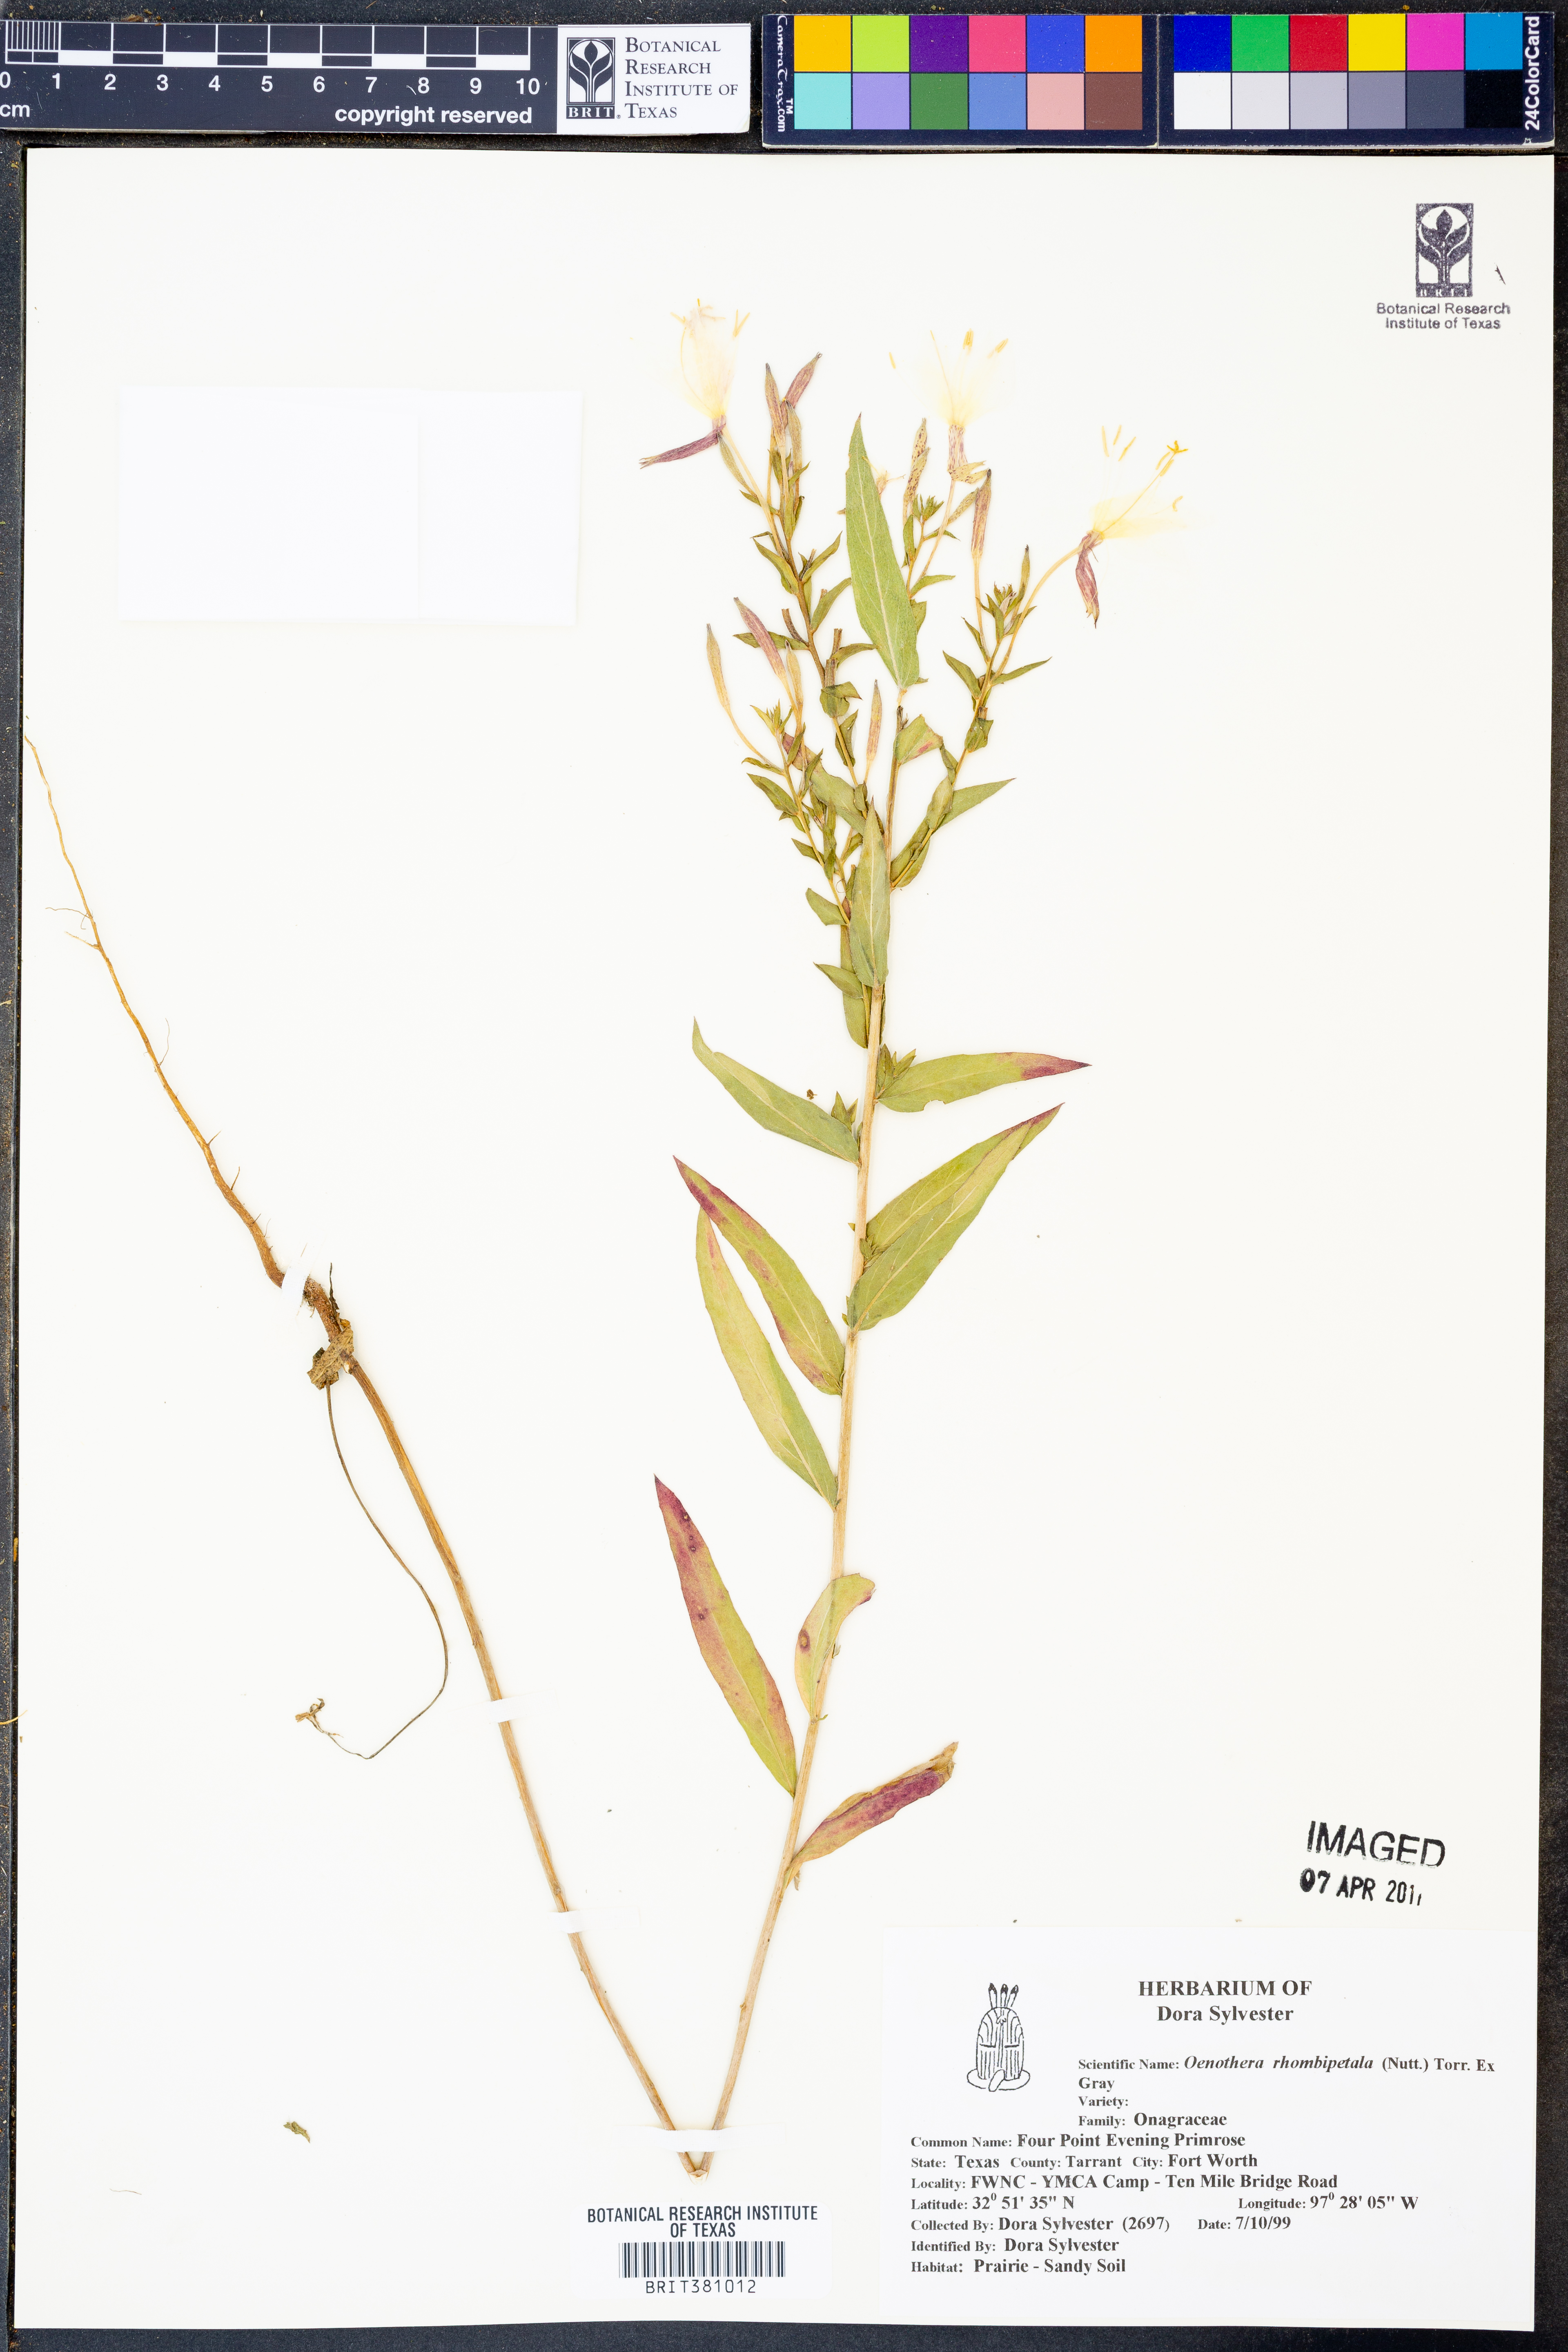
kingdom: Plantae
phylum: Tracheophyta
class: Magnoliopsida
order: Myrtales
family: Onagraceae
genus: Oenothera
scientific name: Oenothera rhombipetala
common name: Four-points evening-primrose
